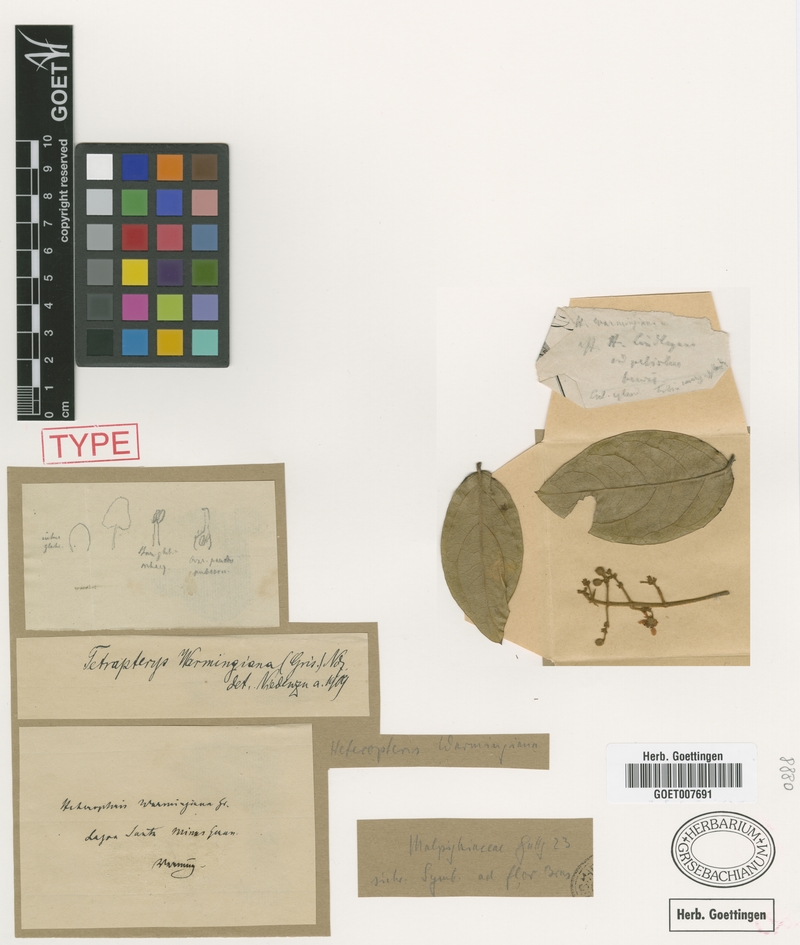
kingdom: Plantae
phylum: Tracheophyta
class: Magnoliopsida
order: Malpighiales
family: Malpighiaceae
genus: Niedenzuella
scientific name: Niedenzuella warmingiana
